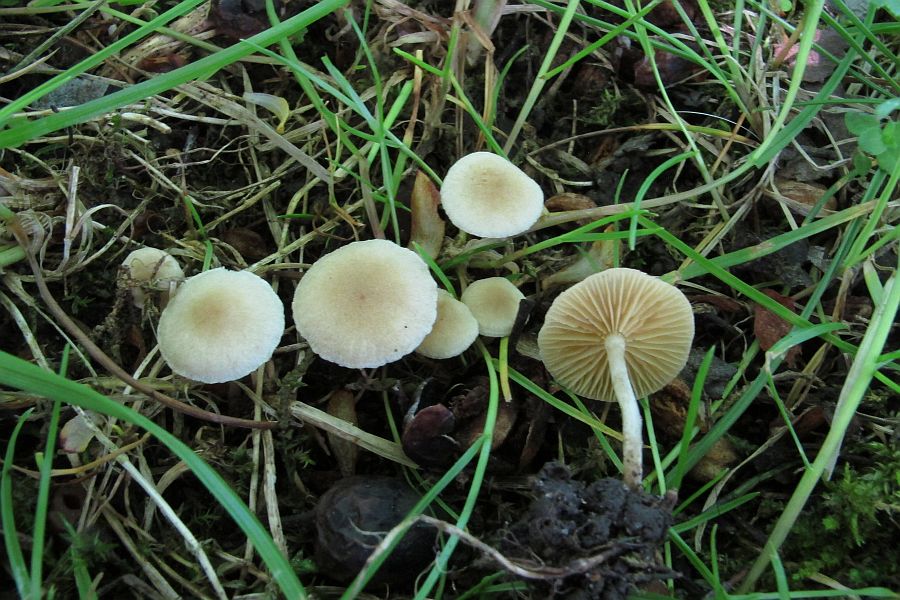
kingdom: Fungi
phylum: Basidiomycota
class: Agaricomycetes
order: Agaricales
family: Tubariaceae
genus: Tubaria
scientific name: Tubaria dispersa
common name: tjørne-fnughat
